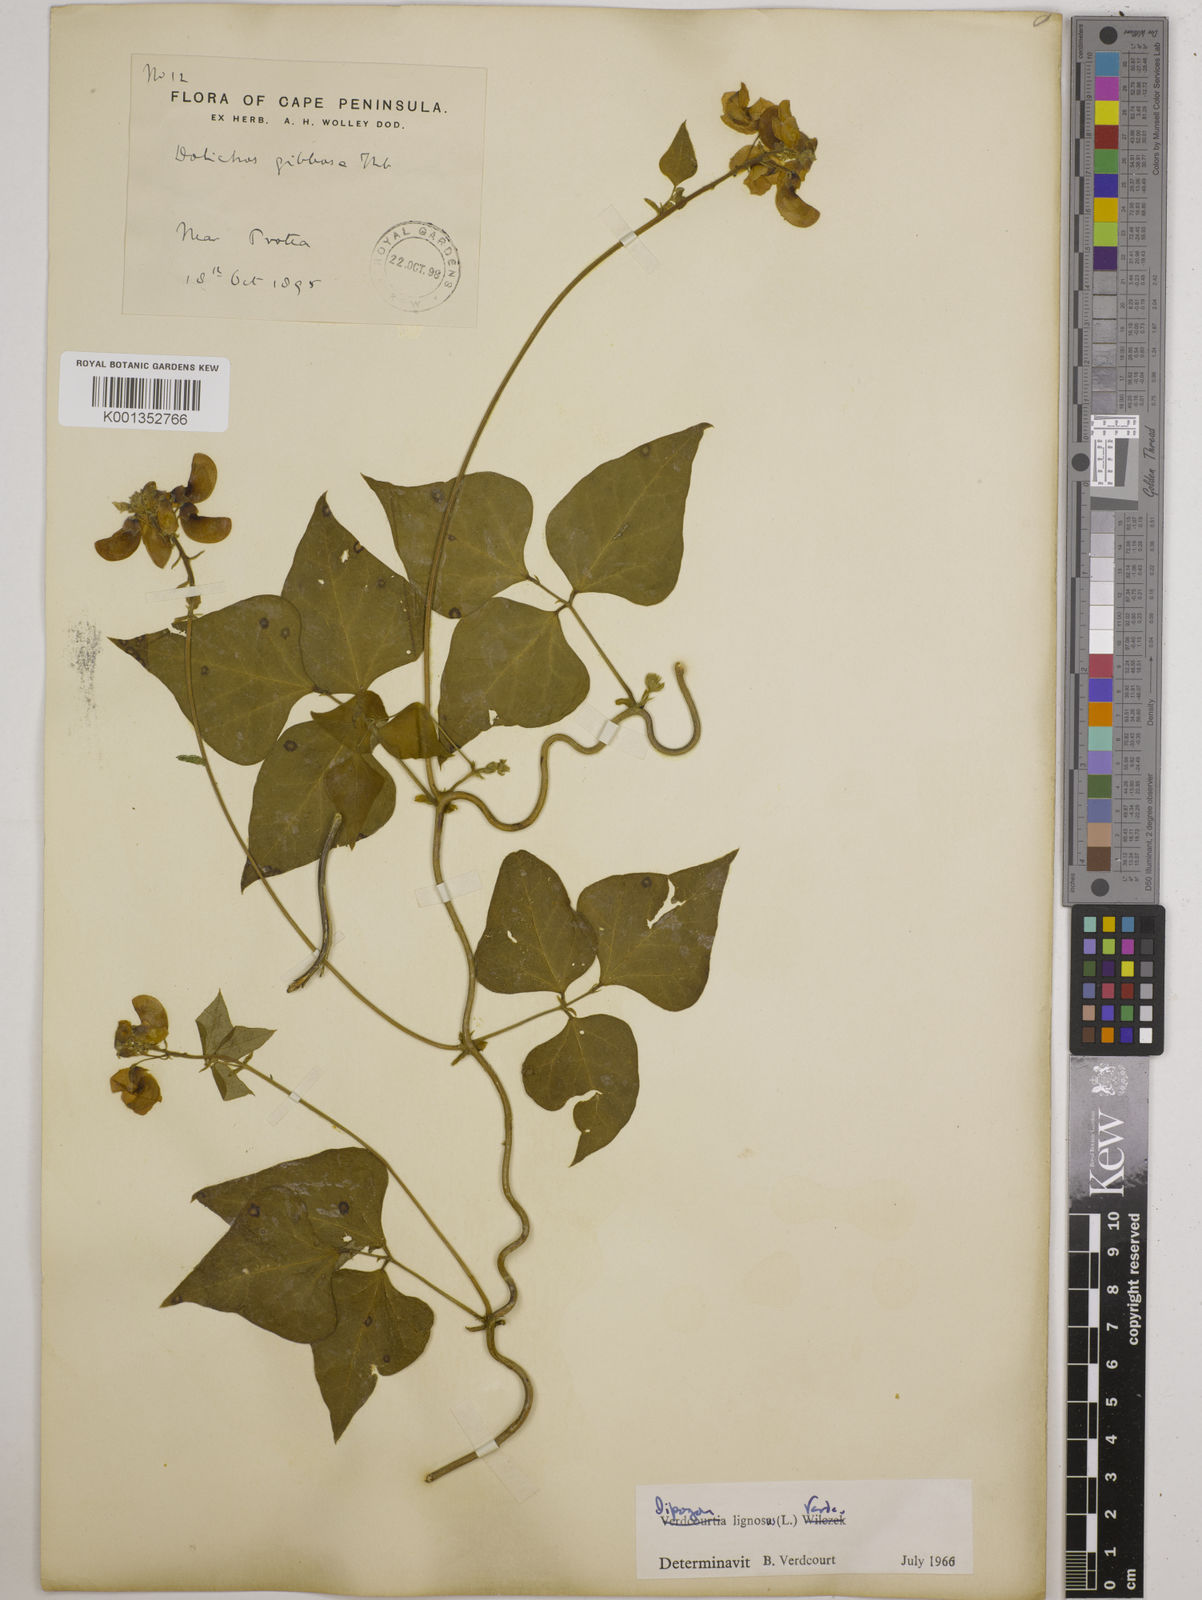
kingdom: Plantae
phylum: Tracheophyta
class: Magnoliopsida
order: Fabales
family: Fabaceae
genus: Dipogon
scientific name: Dipogon lignosus
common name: Okie bean
